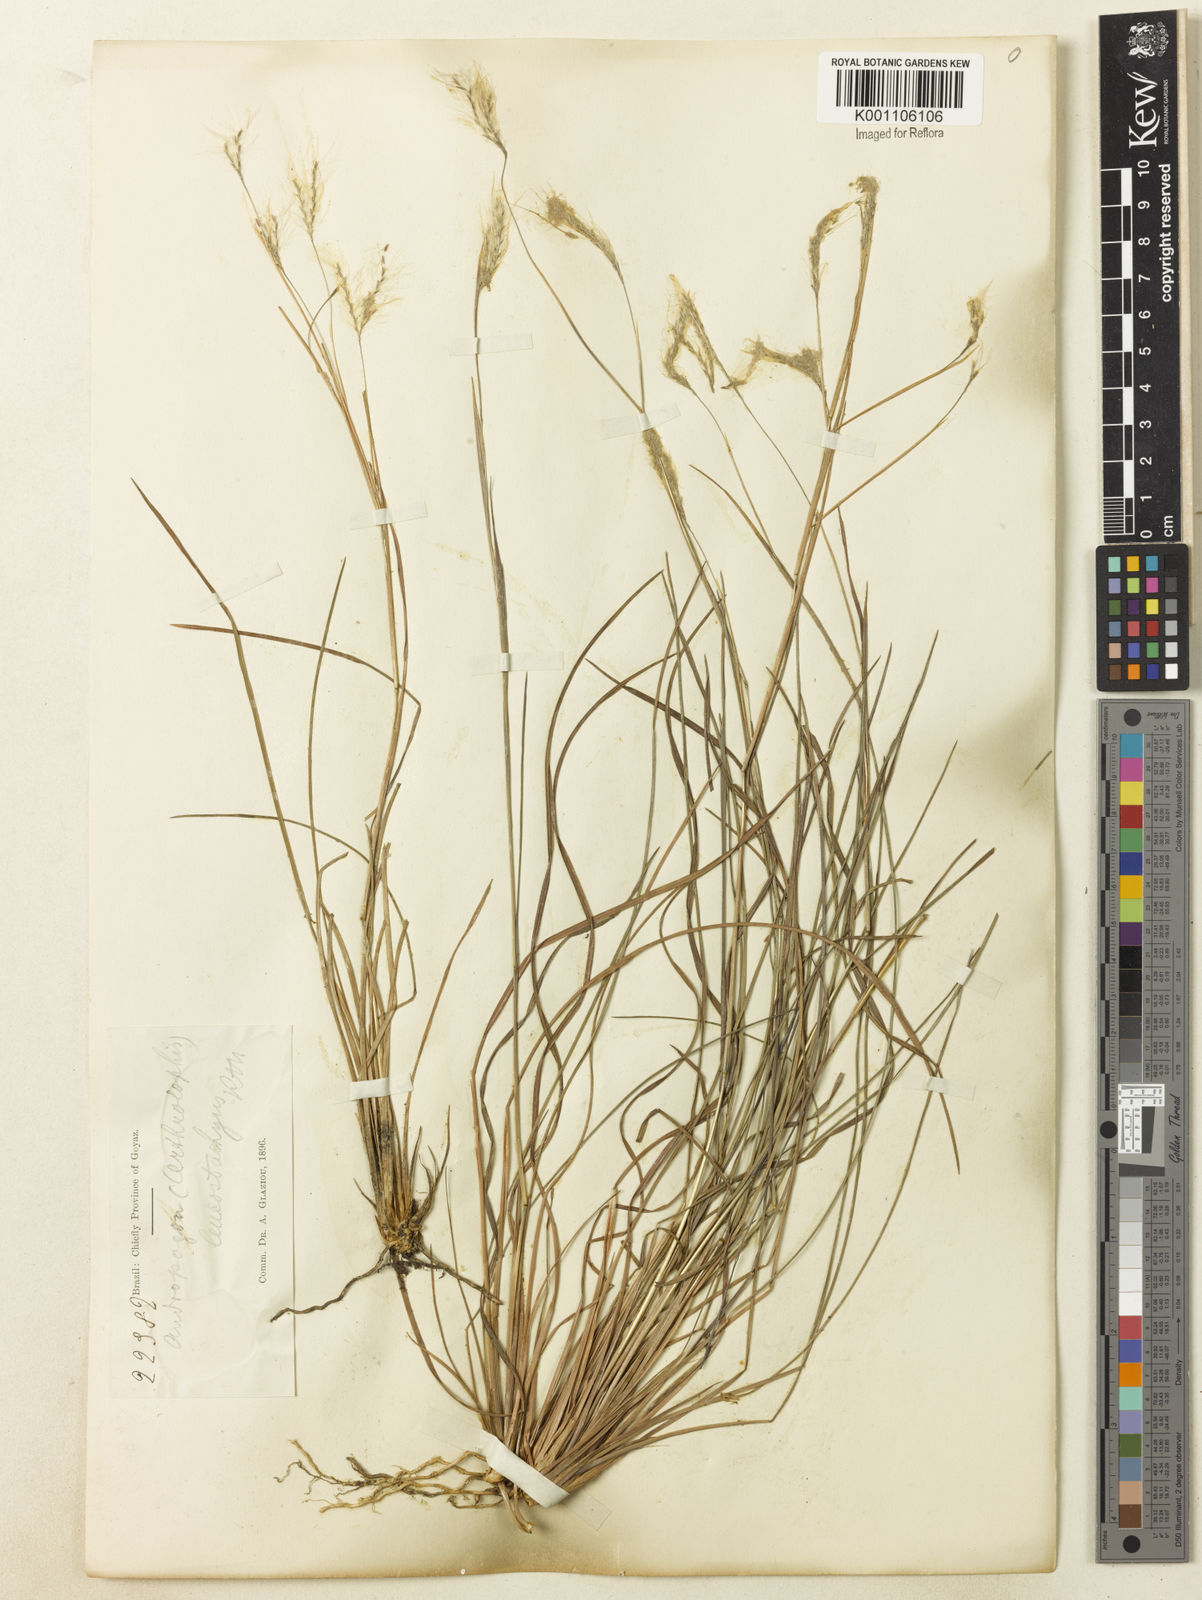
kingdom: Plantae
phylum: Tracheophyta
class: Liliopsida
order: Poales
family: Poaceae
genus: Andropogon
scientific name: Andropogon leucostachyus
